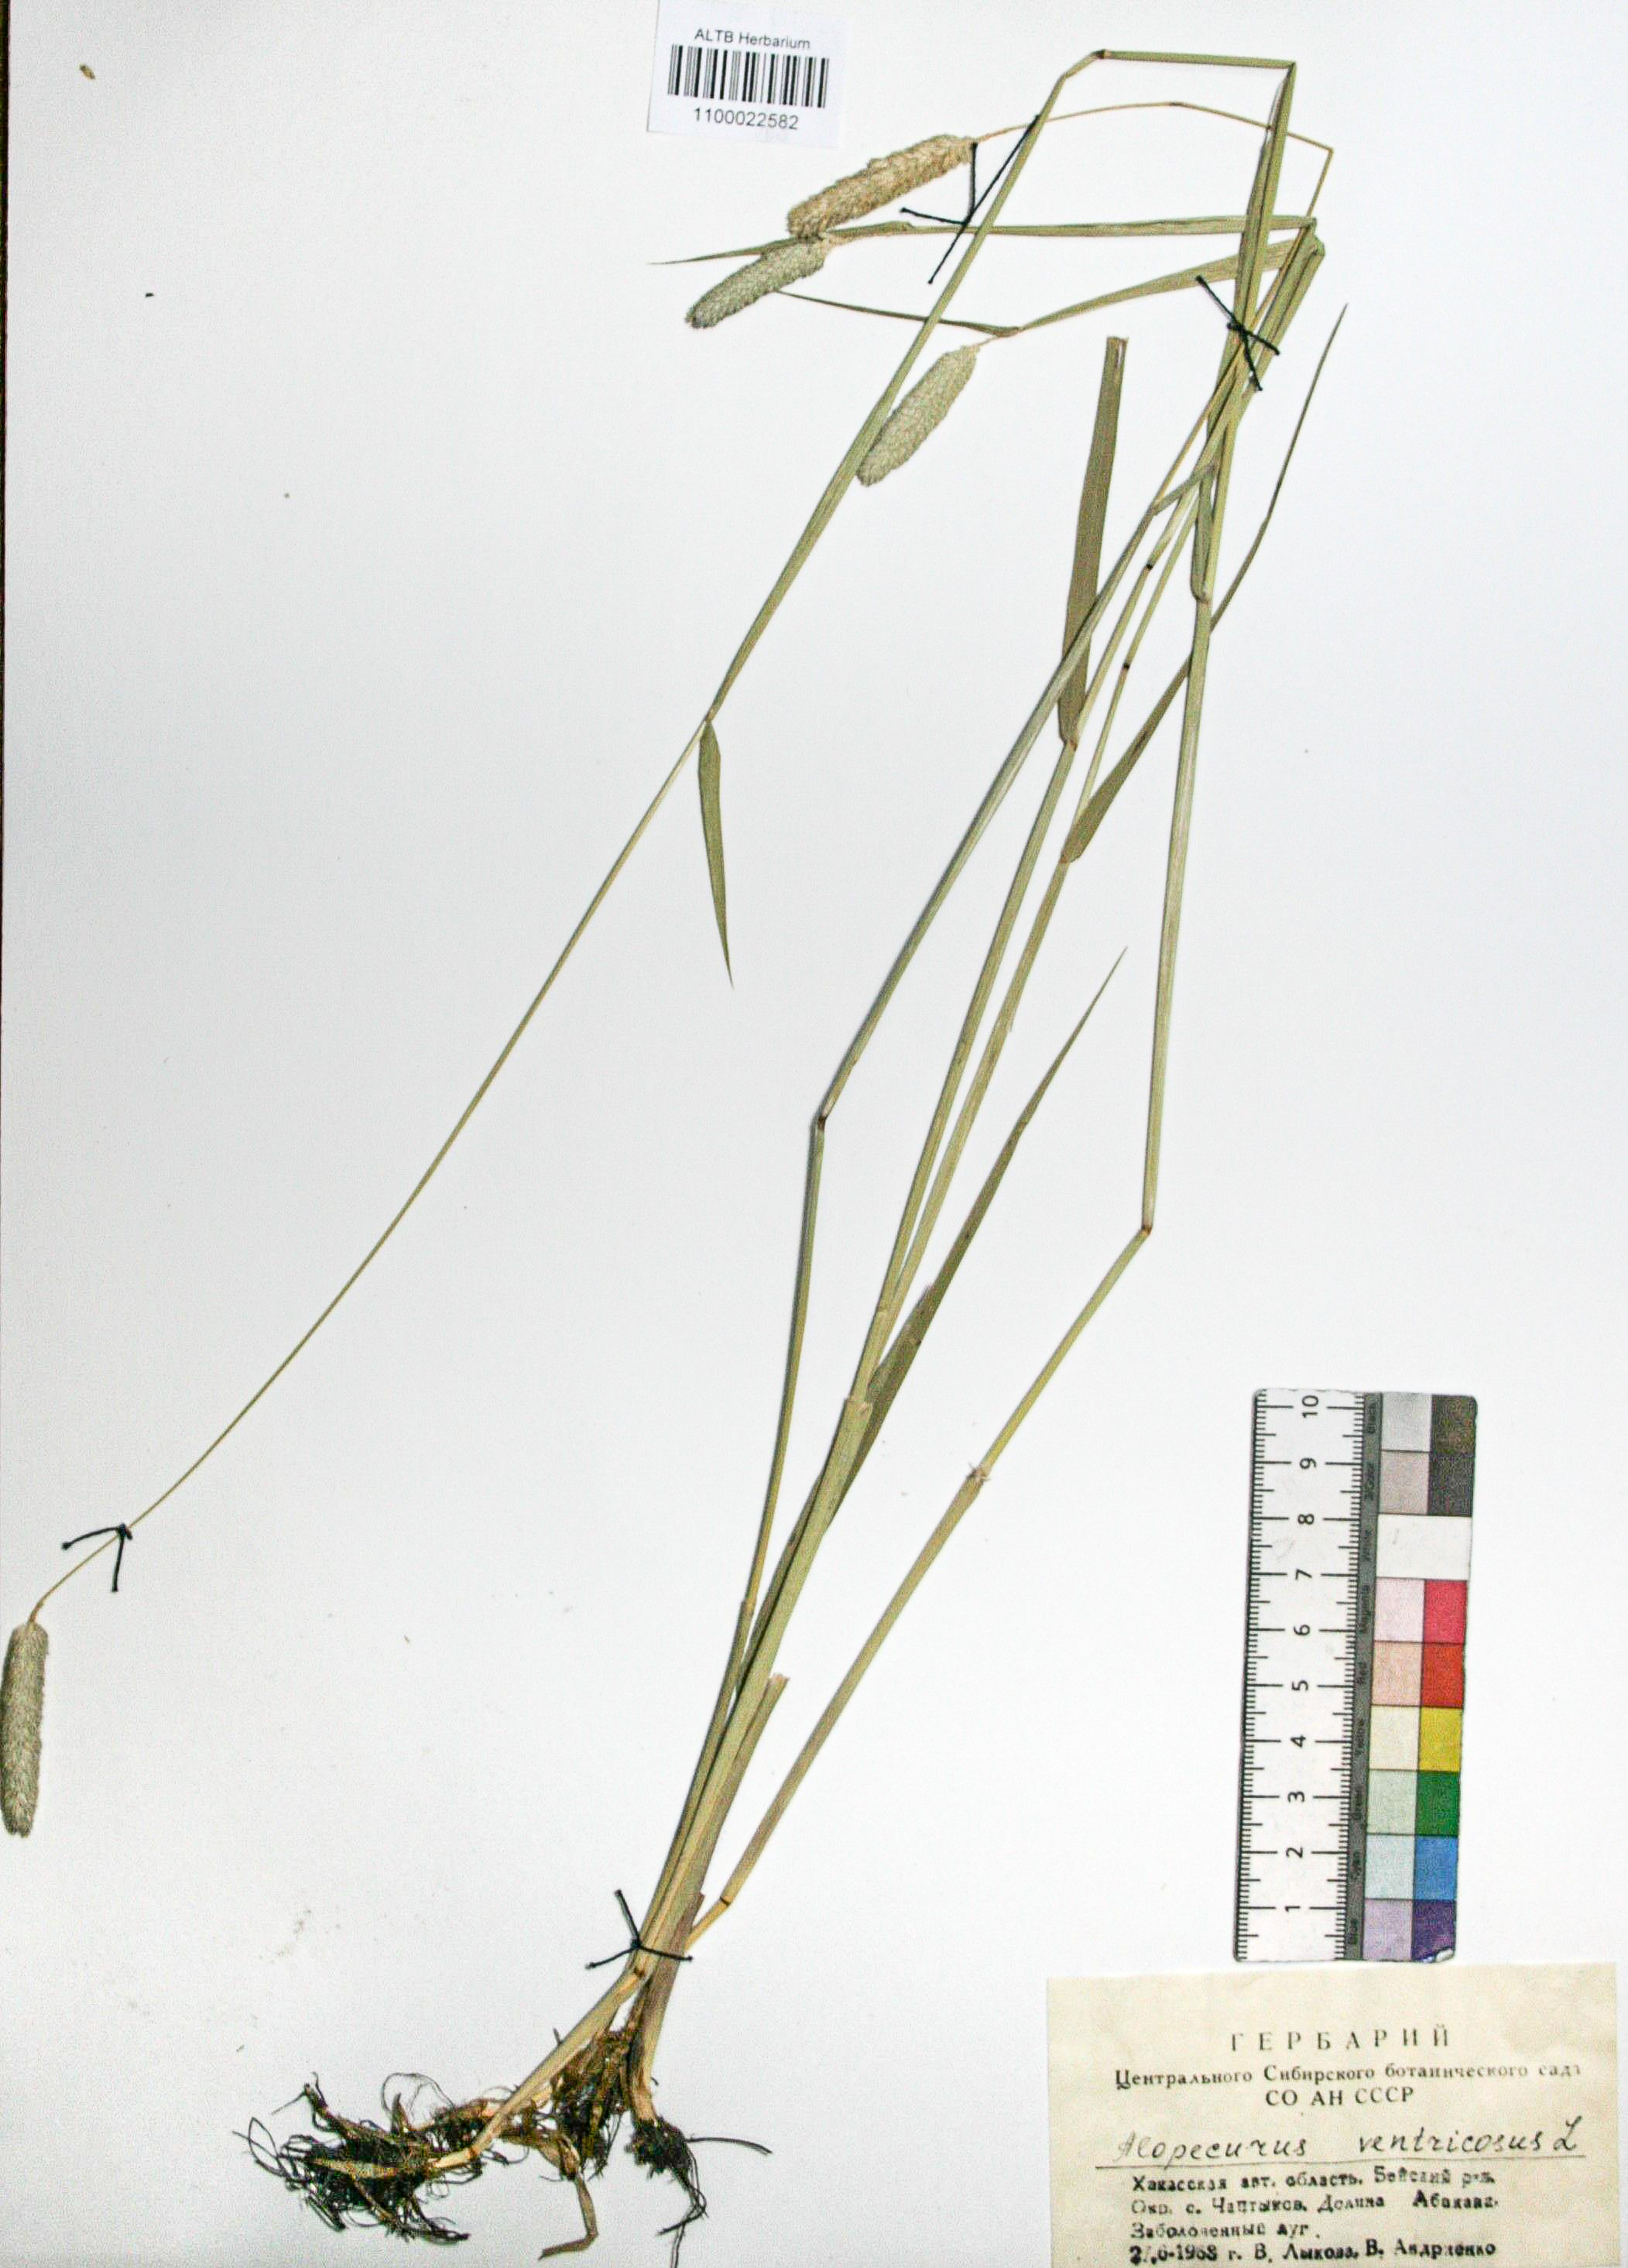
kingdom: Plantae
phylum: Tracheophyta
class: Liliopsida
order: Poales
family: Poaceae
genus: Alopecurus
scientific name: Alopecurus arundinaceus
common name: Creeping meadow foxtail
